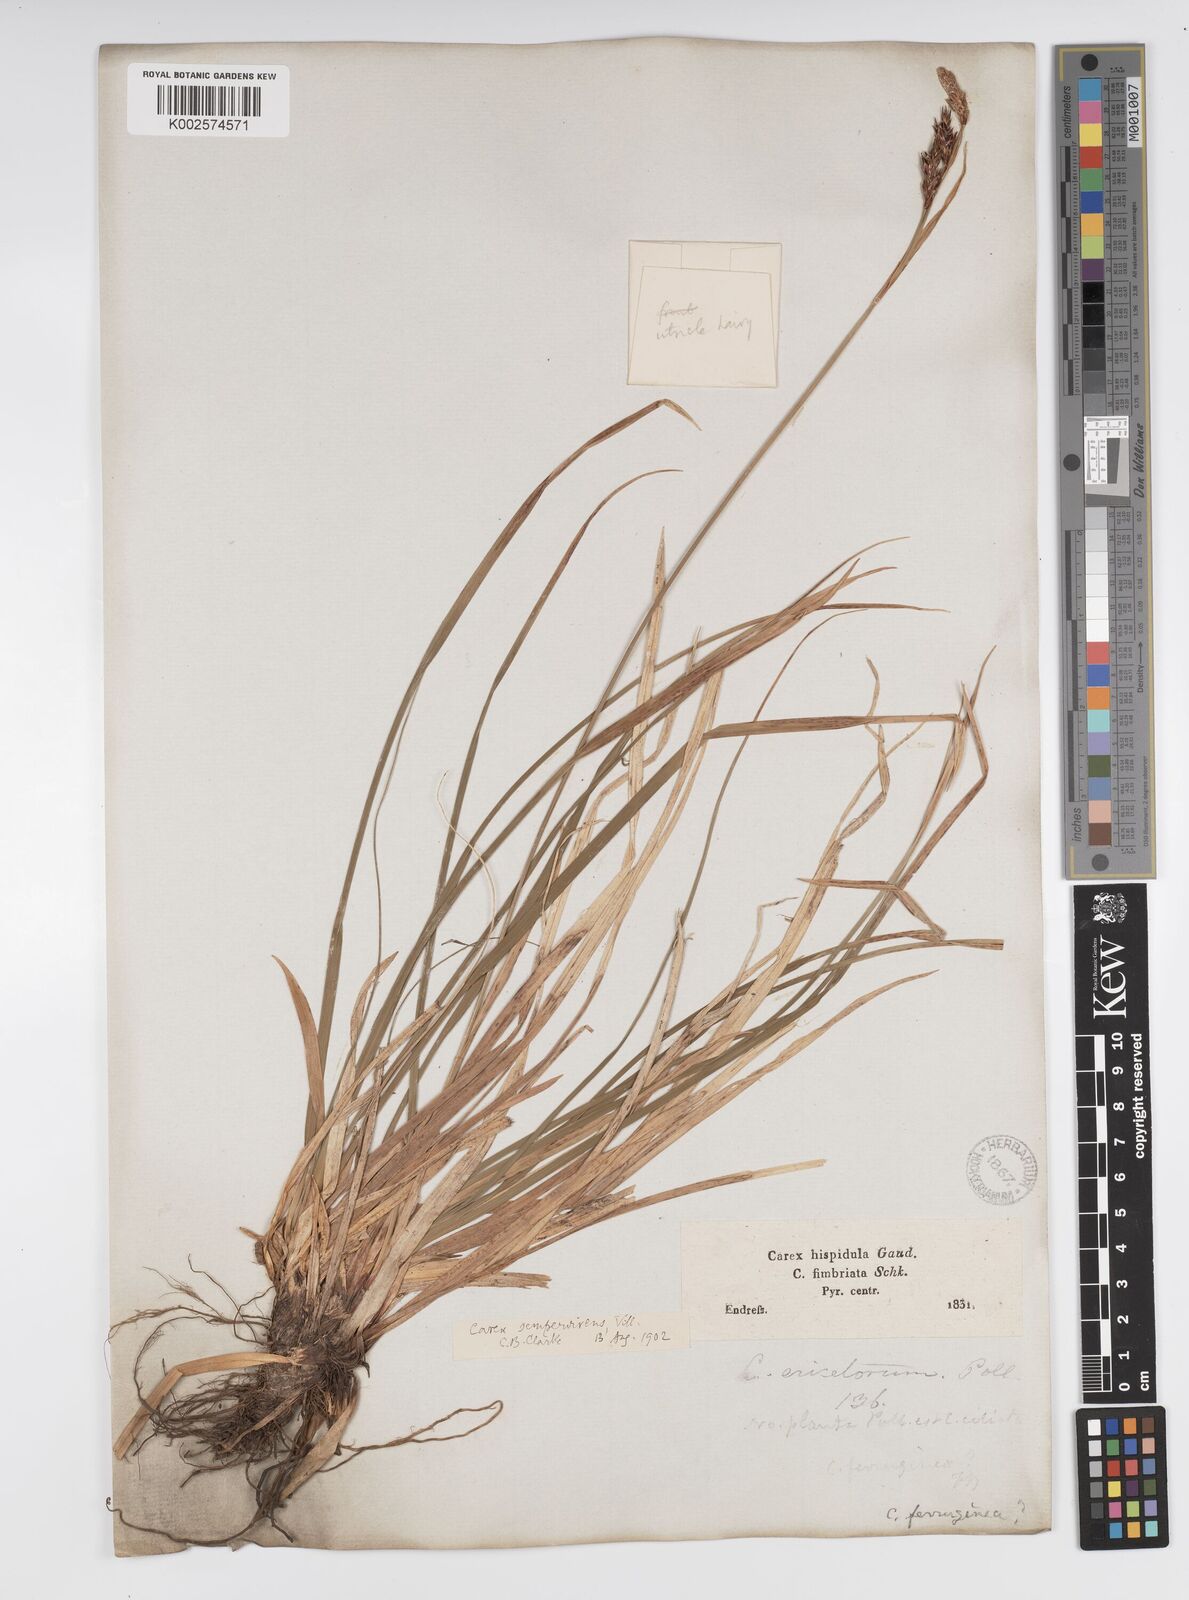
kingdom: Plantae
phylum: Tracheophyta
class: Liliopsida
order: Poales
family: Cyperaceae
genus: Carex
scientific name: Carex sempervirens
